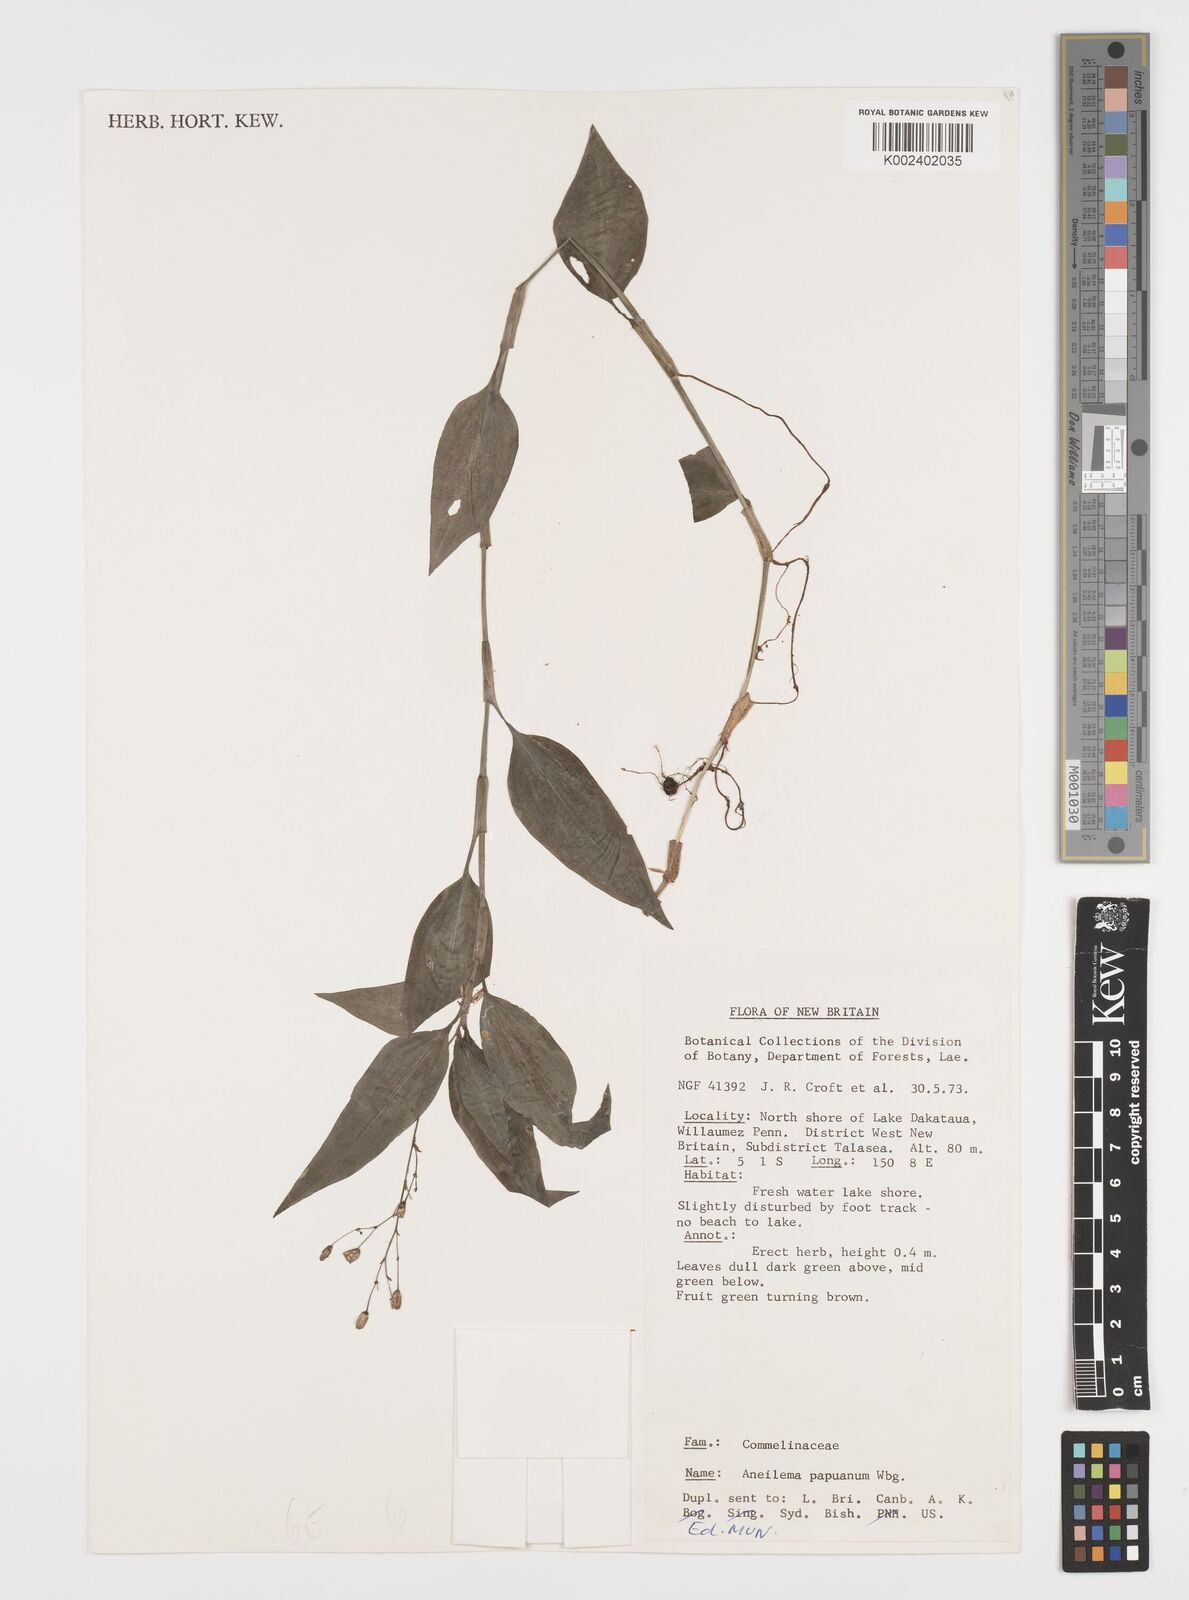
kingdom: Plantae
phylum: Tracheophyta
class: Liliopsida
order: Commelinales
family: Commelinaceae
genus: Aneilema
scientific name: Aneilema acuminatum
